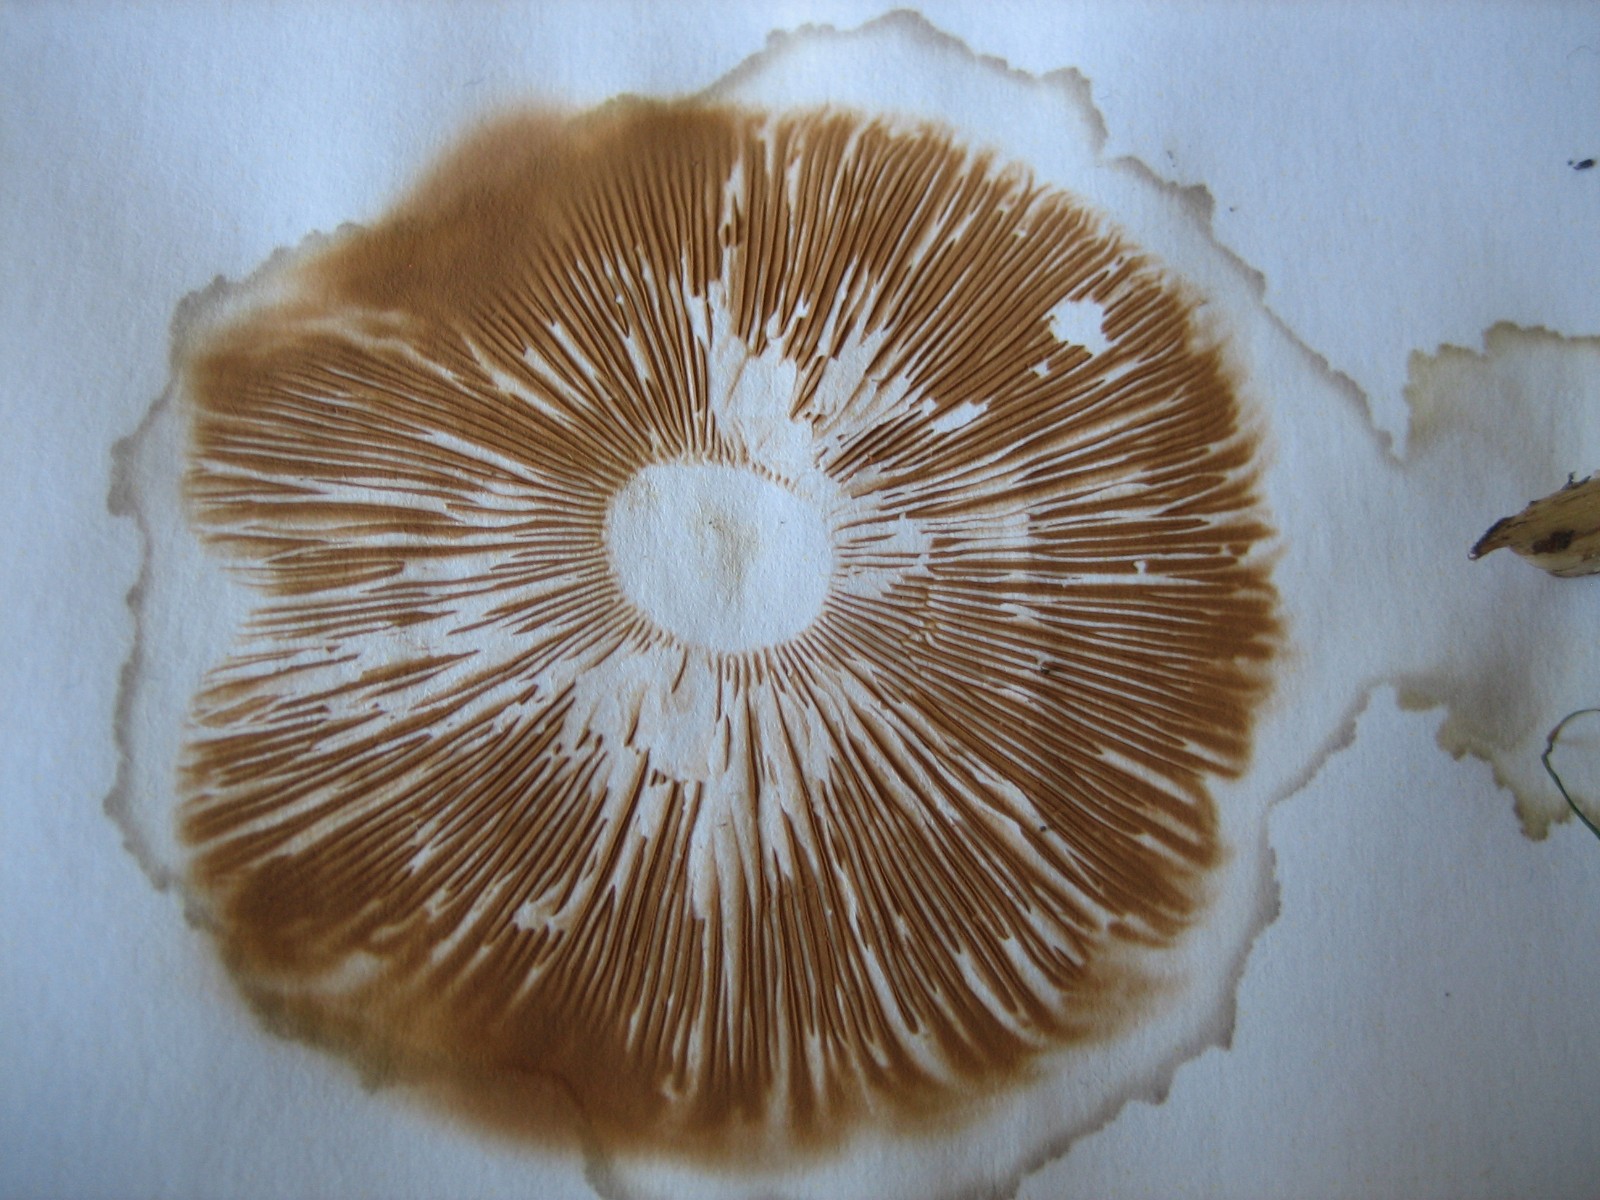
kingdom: Fungi
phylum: Basidiomycota
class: Agaricomycetes
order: Agaricales
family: Pluteaceae
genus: Pluteus
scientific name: Pluteus cervinus
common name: sodfarvet skærmhat
